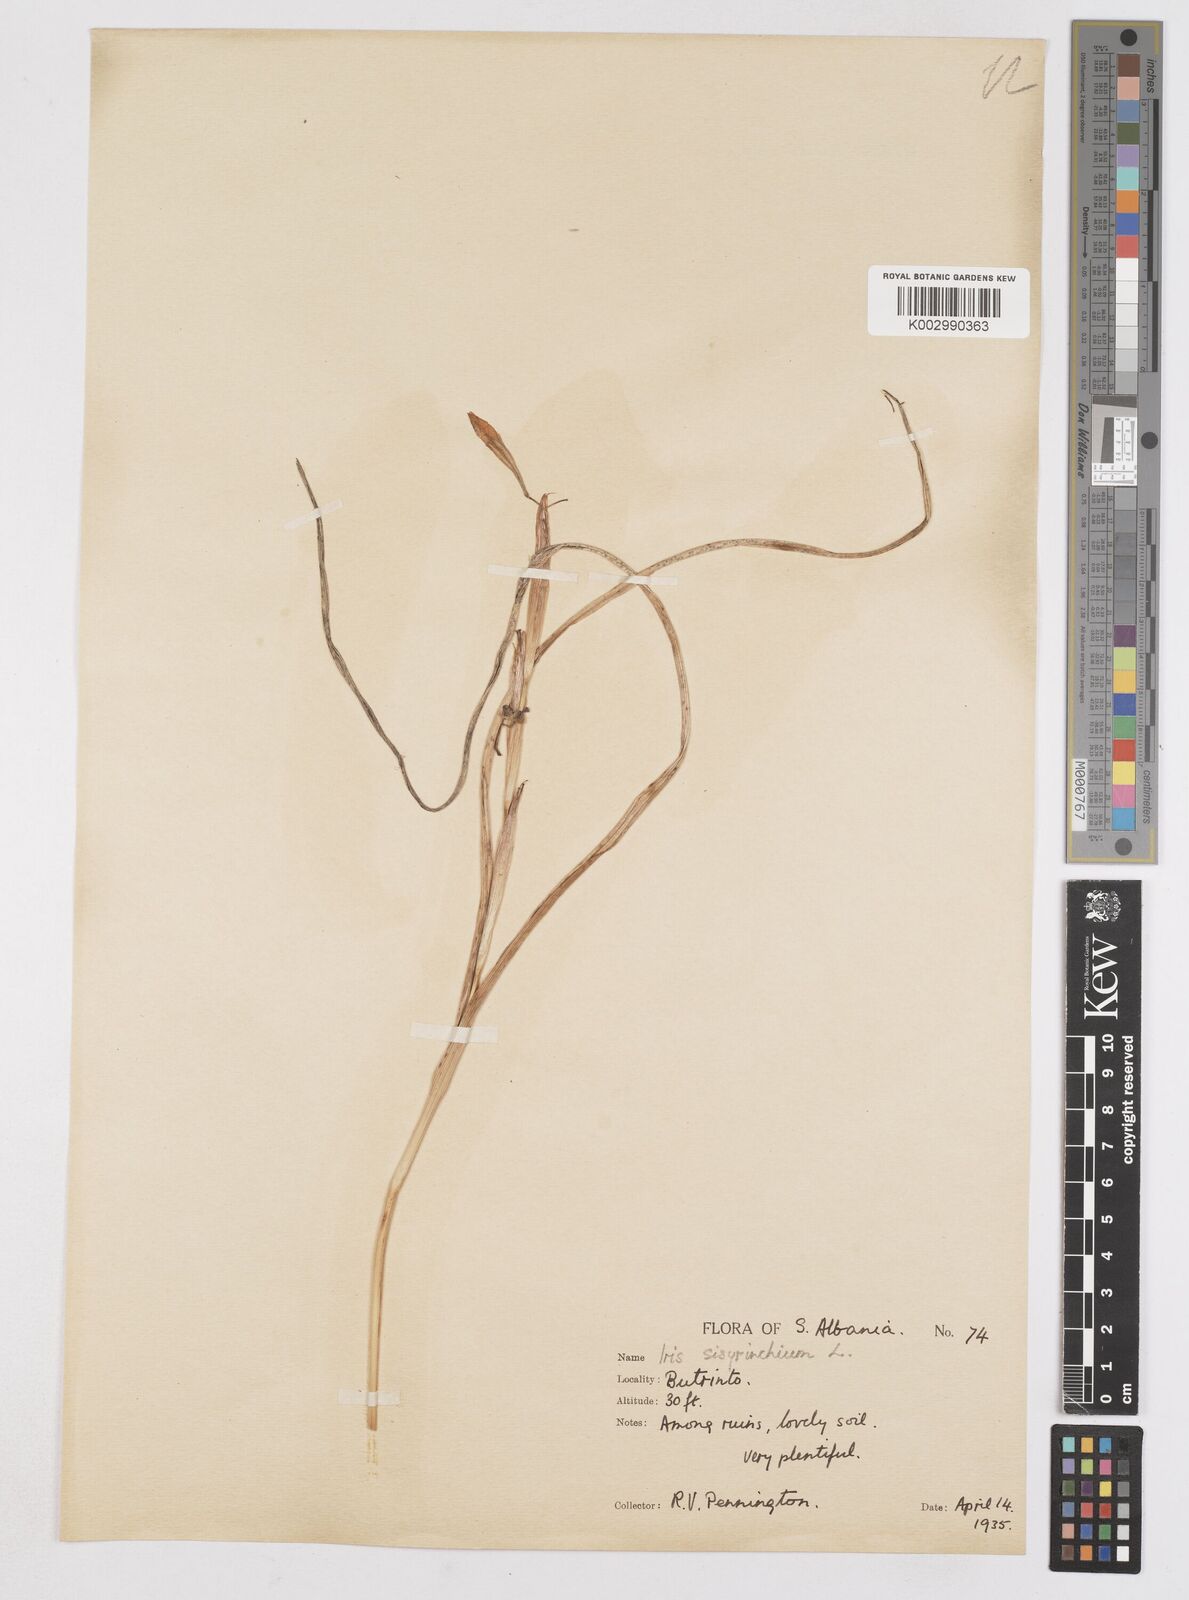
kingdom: Plantae
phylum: Tracheophyta
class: Liliopsida
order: Asparagales
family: Iridaceae
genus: Moraea
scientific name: Moraea sisyrinchium
